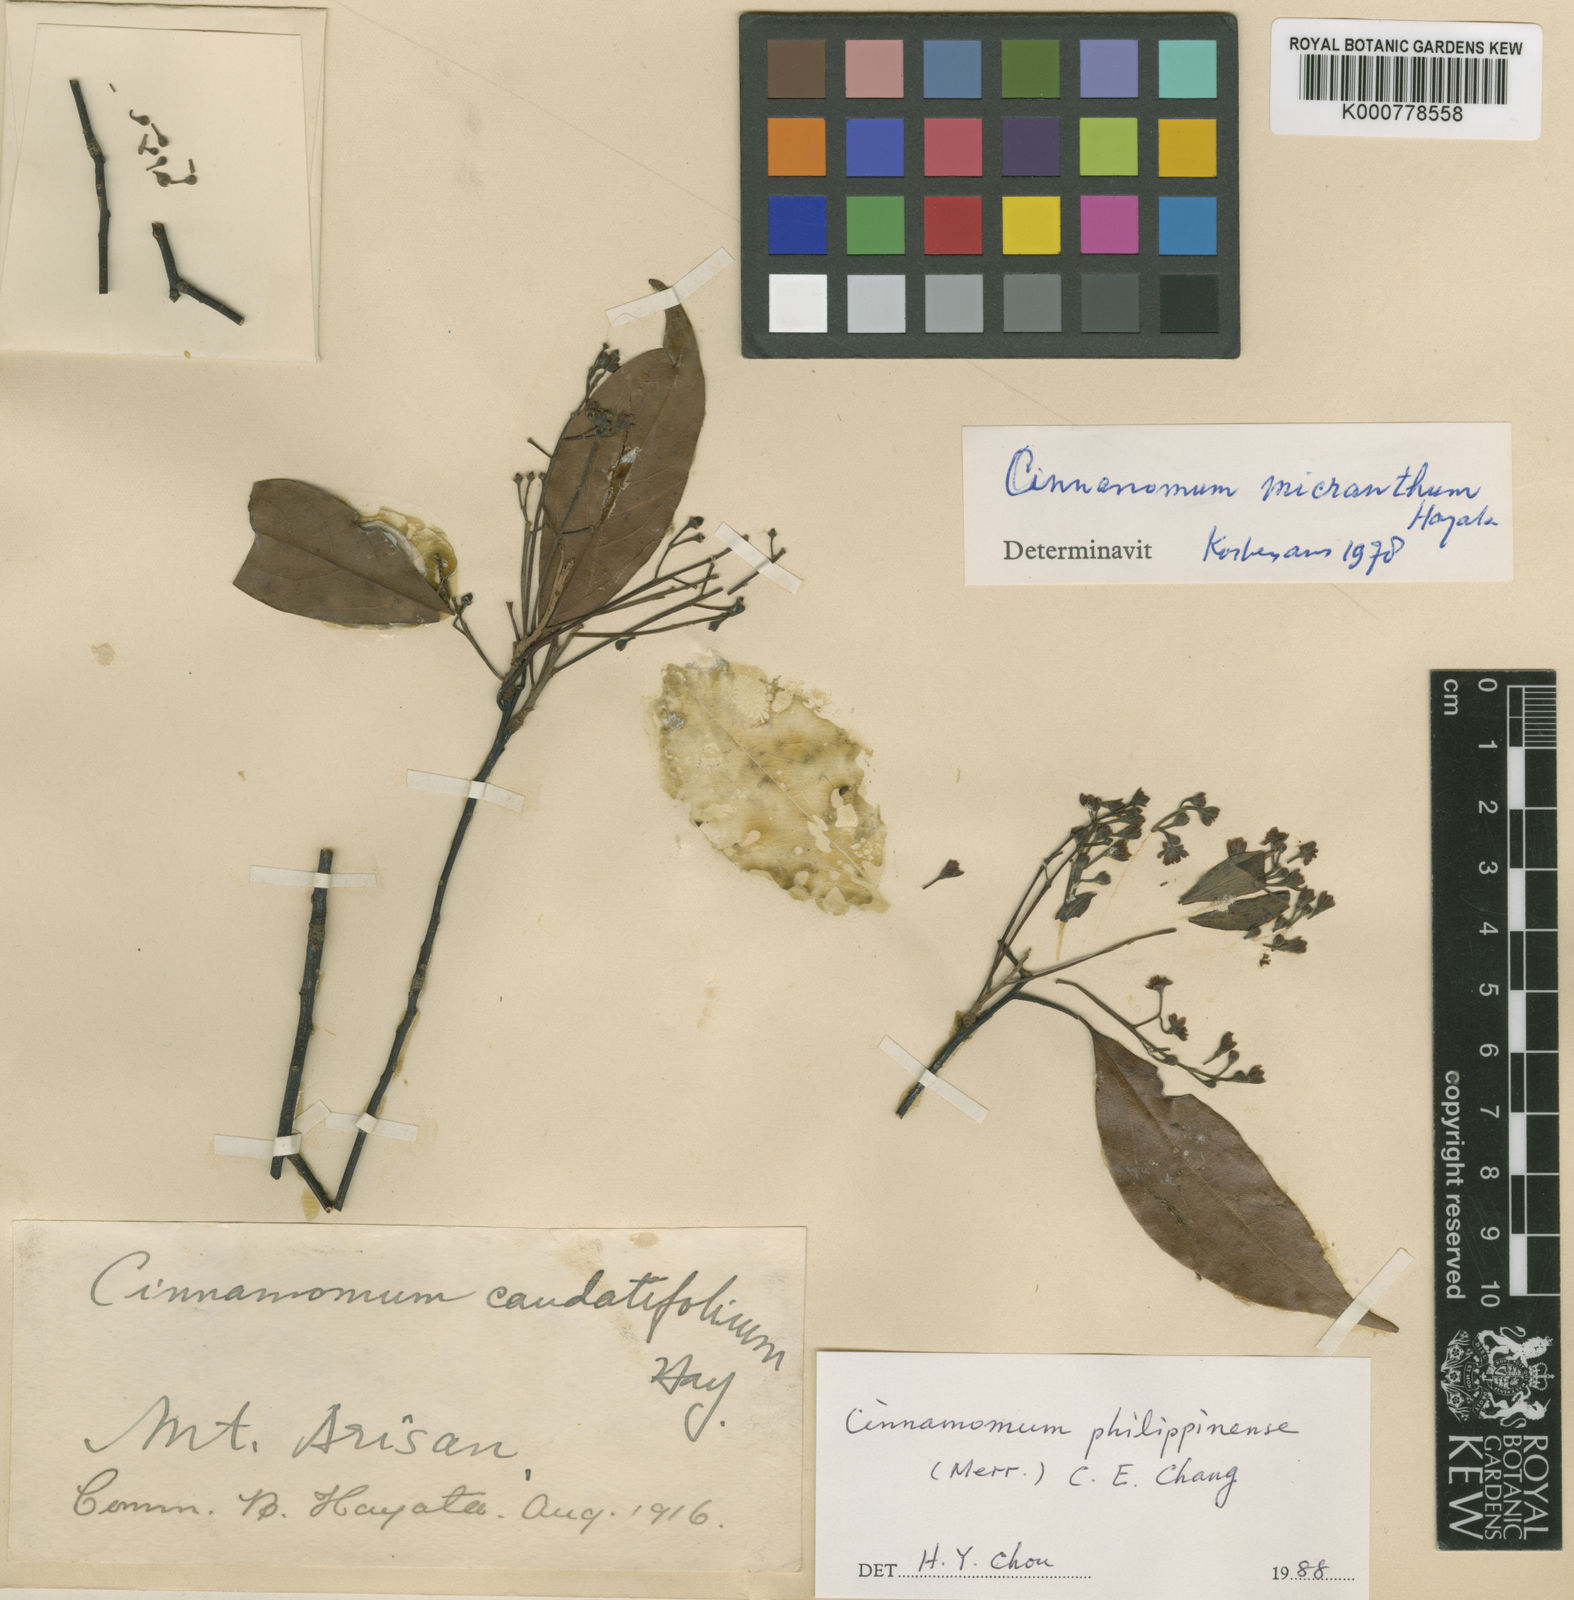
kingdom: Plantae
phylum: Tracheophyta
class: Magnoliopsida
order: Laurales
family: Lauraceae
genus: Cinnamomum
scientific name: Cinnamomum chekiangense
